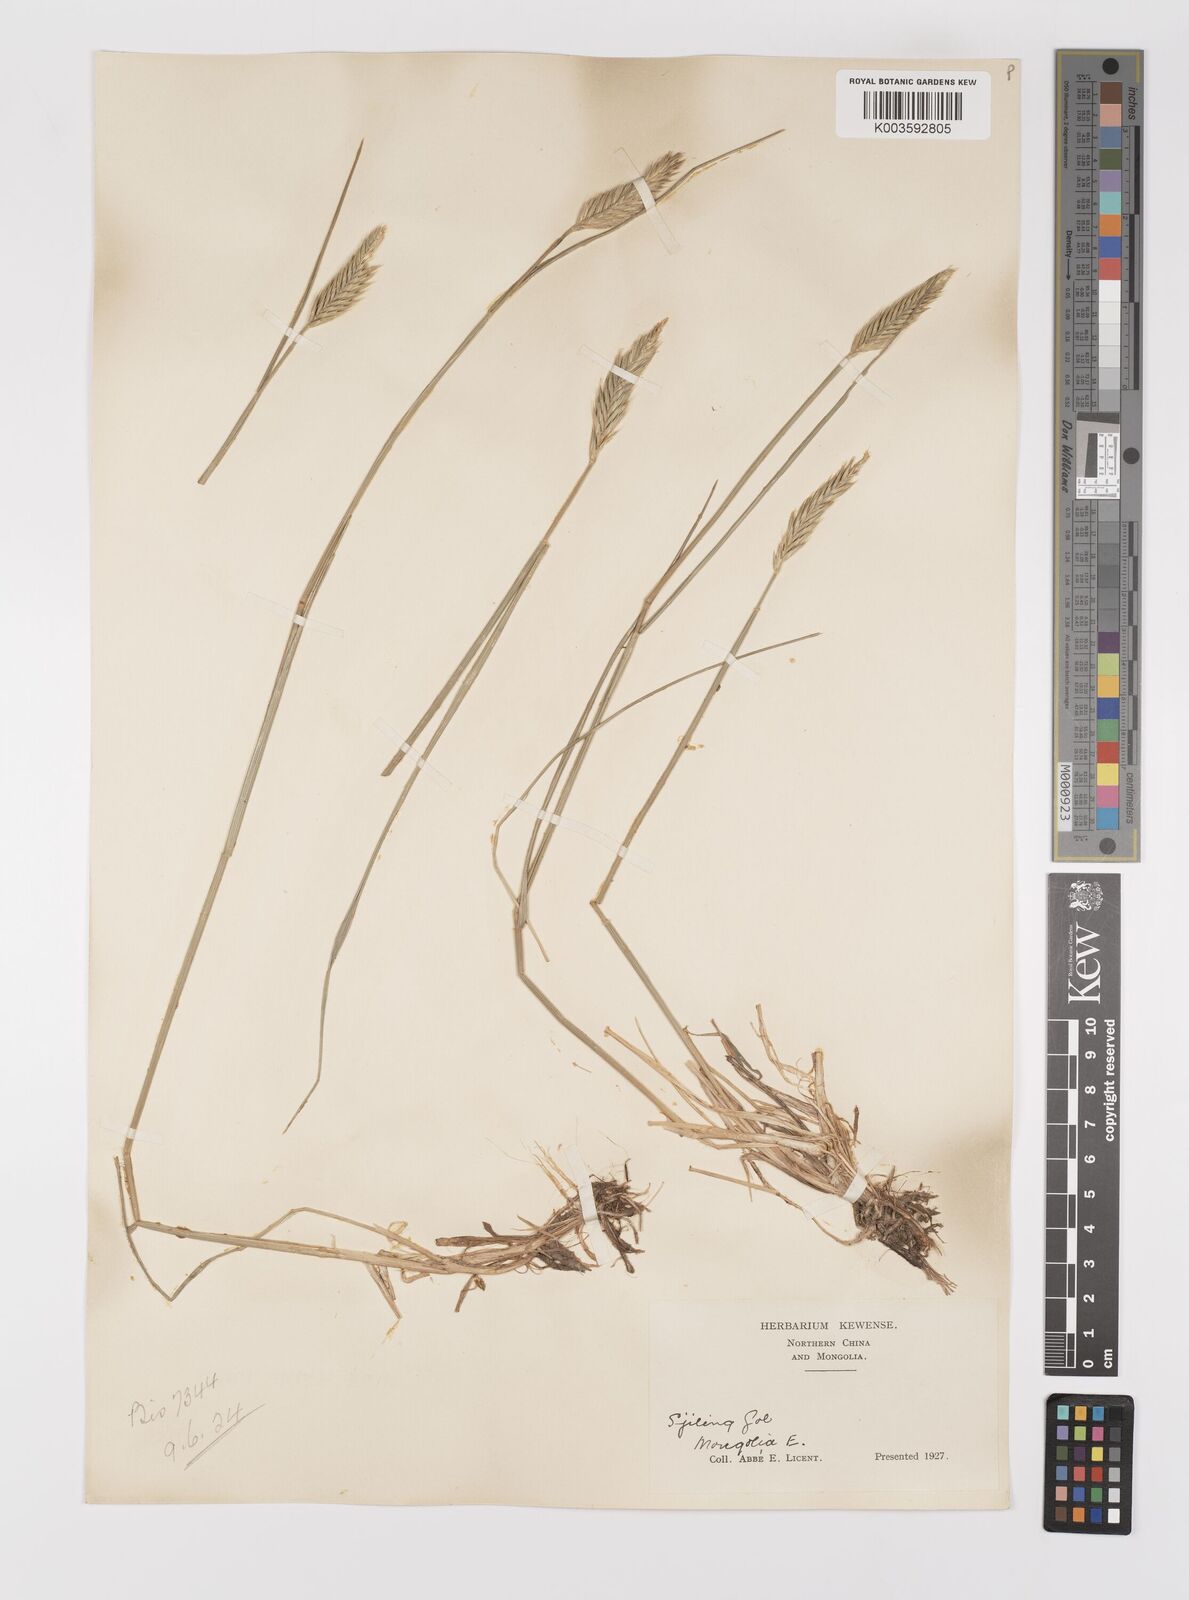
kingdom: Plantae
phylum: Tracheophyta
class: Liliopsida
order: Poales
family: Poaceae
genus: Agropyron
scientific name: Agropyron cristatum
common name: Crested wheatgrass
